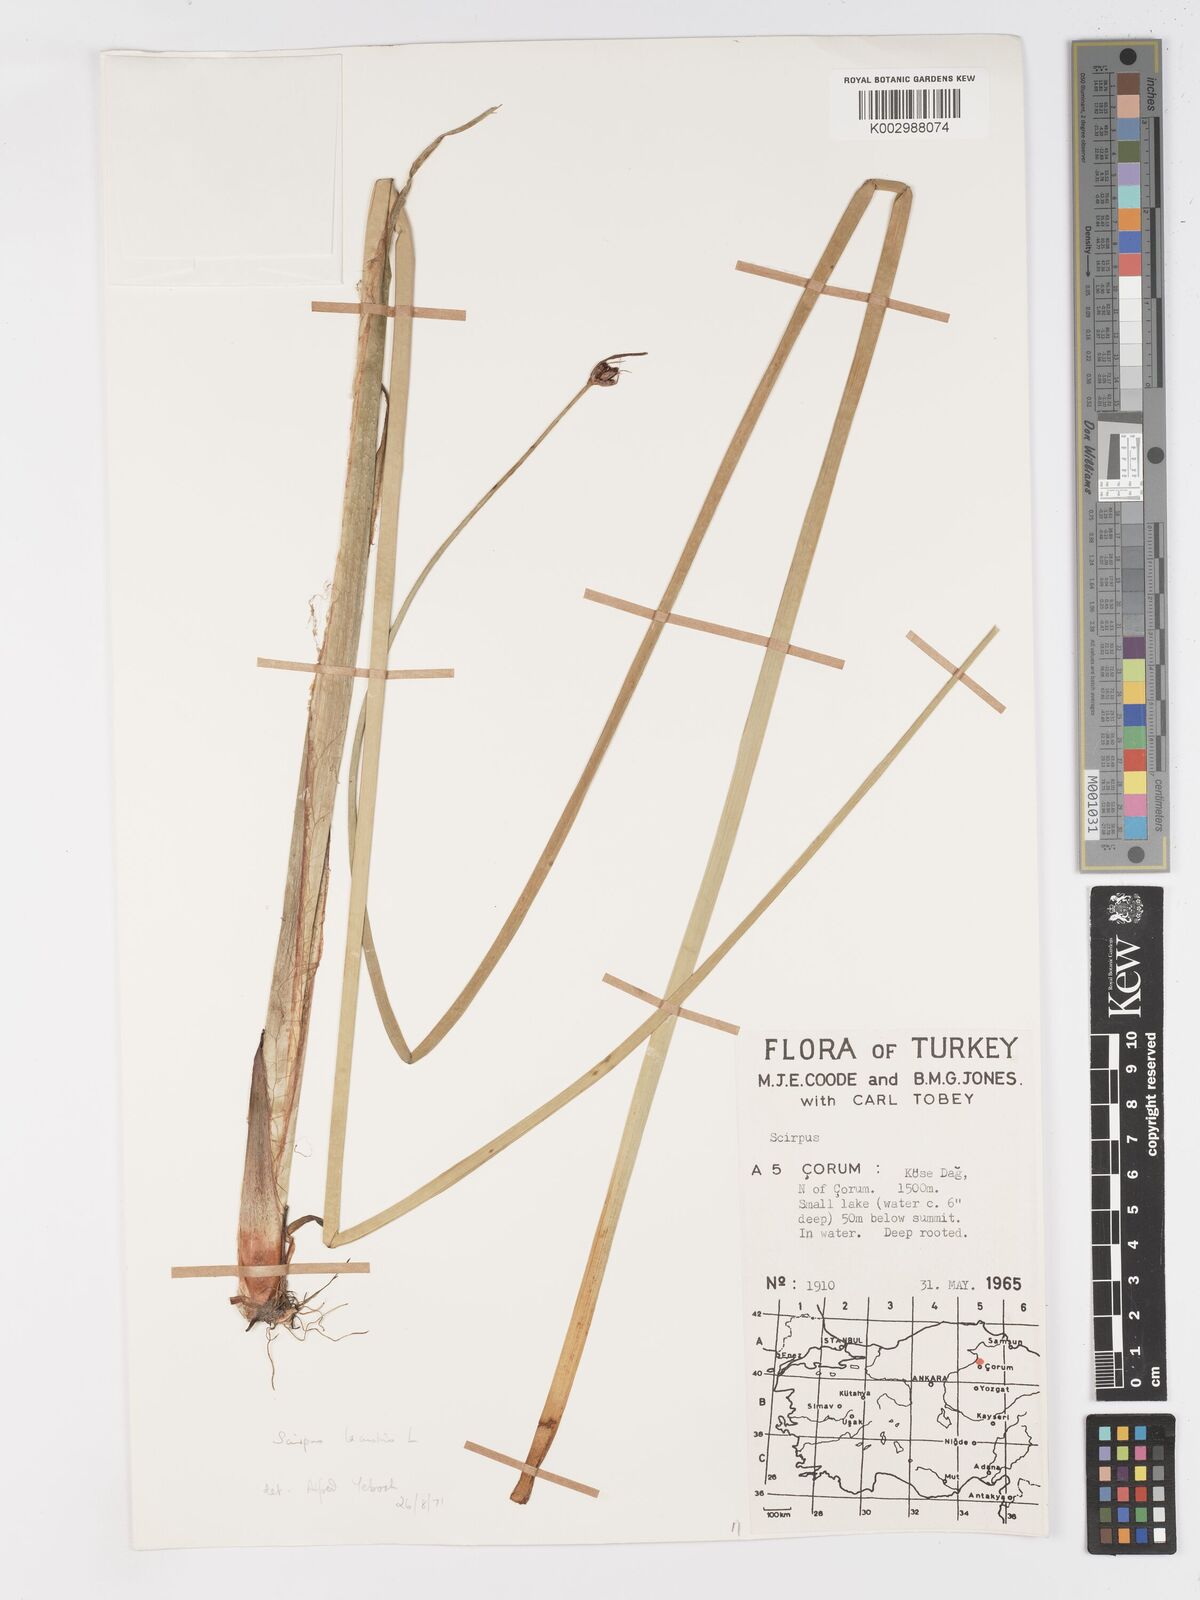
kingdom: Plantae
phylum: Tracheophyta
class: Liliopsida
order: Poales
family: Cyperaceae
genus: Schoenoplectus
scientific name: Schoenoplectus
